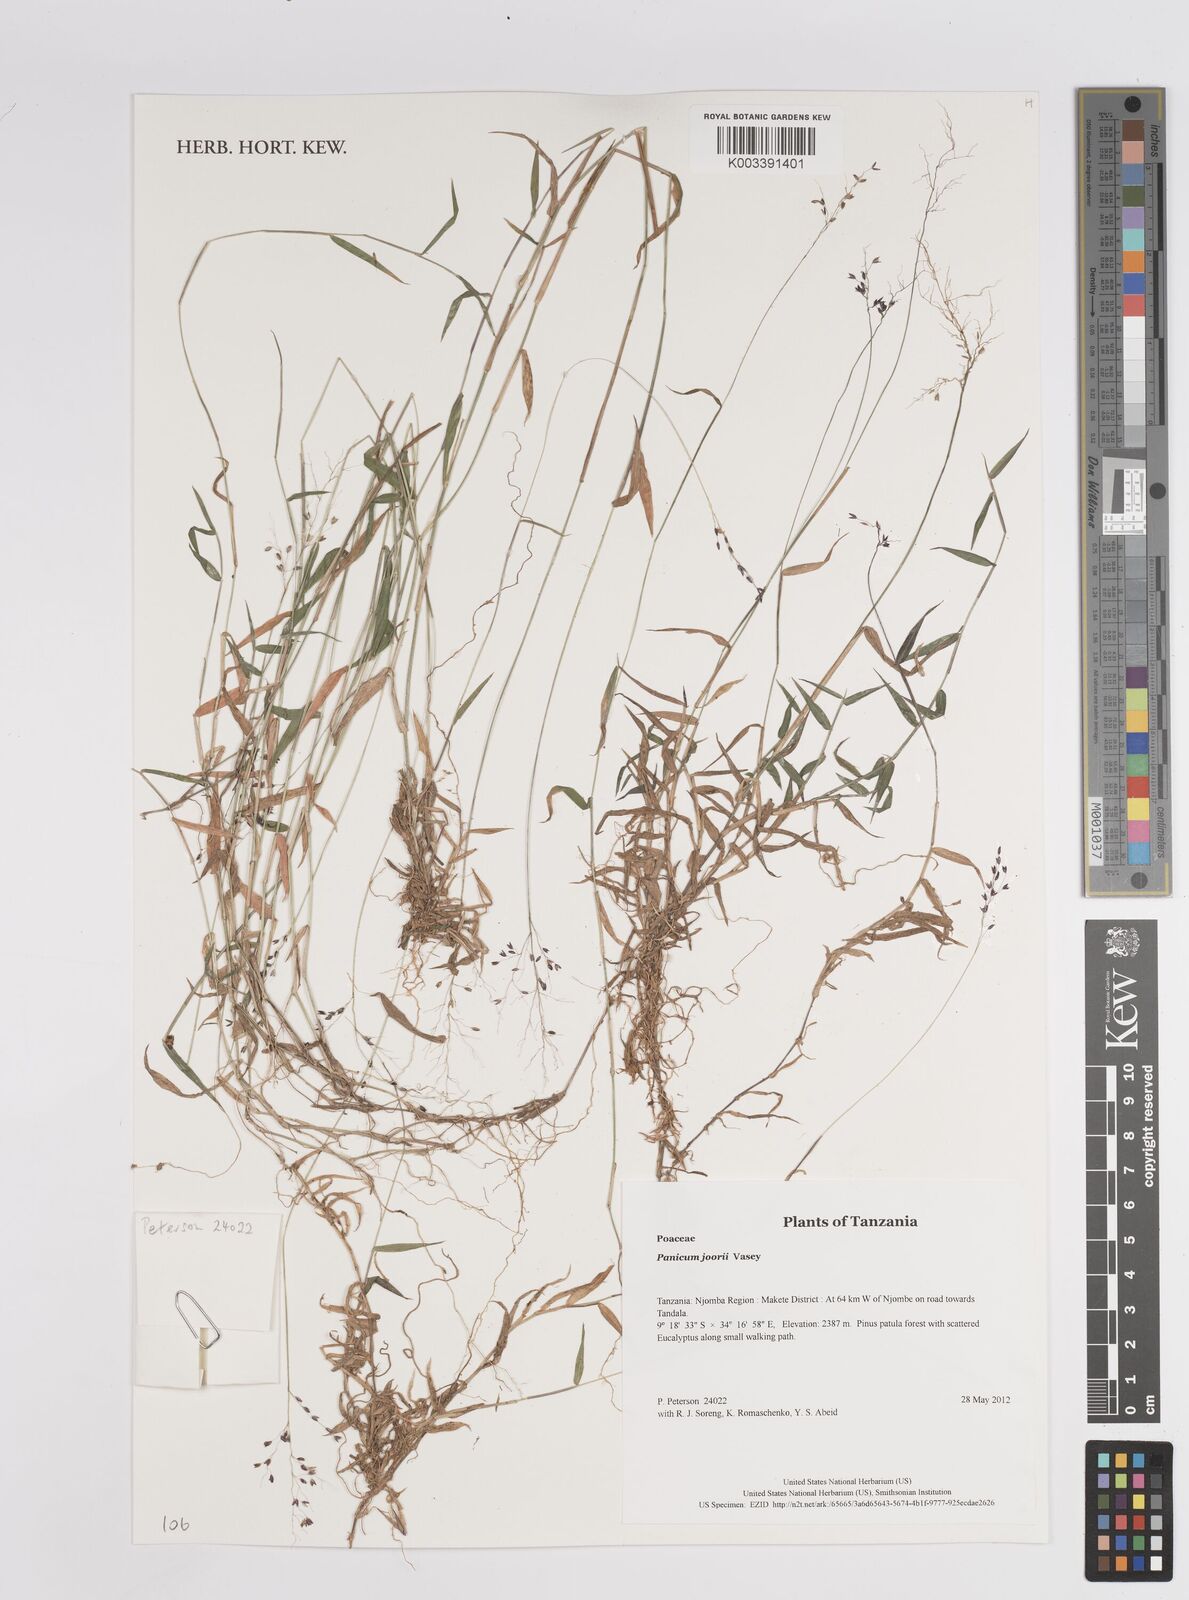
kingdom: Plantae
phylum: Tracheophyta
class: Liliopsida
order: Poales
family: Poaceae
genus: Panicum
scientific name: Panicum
